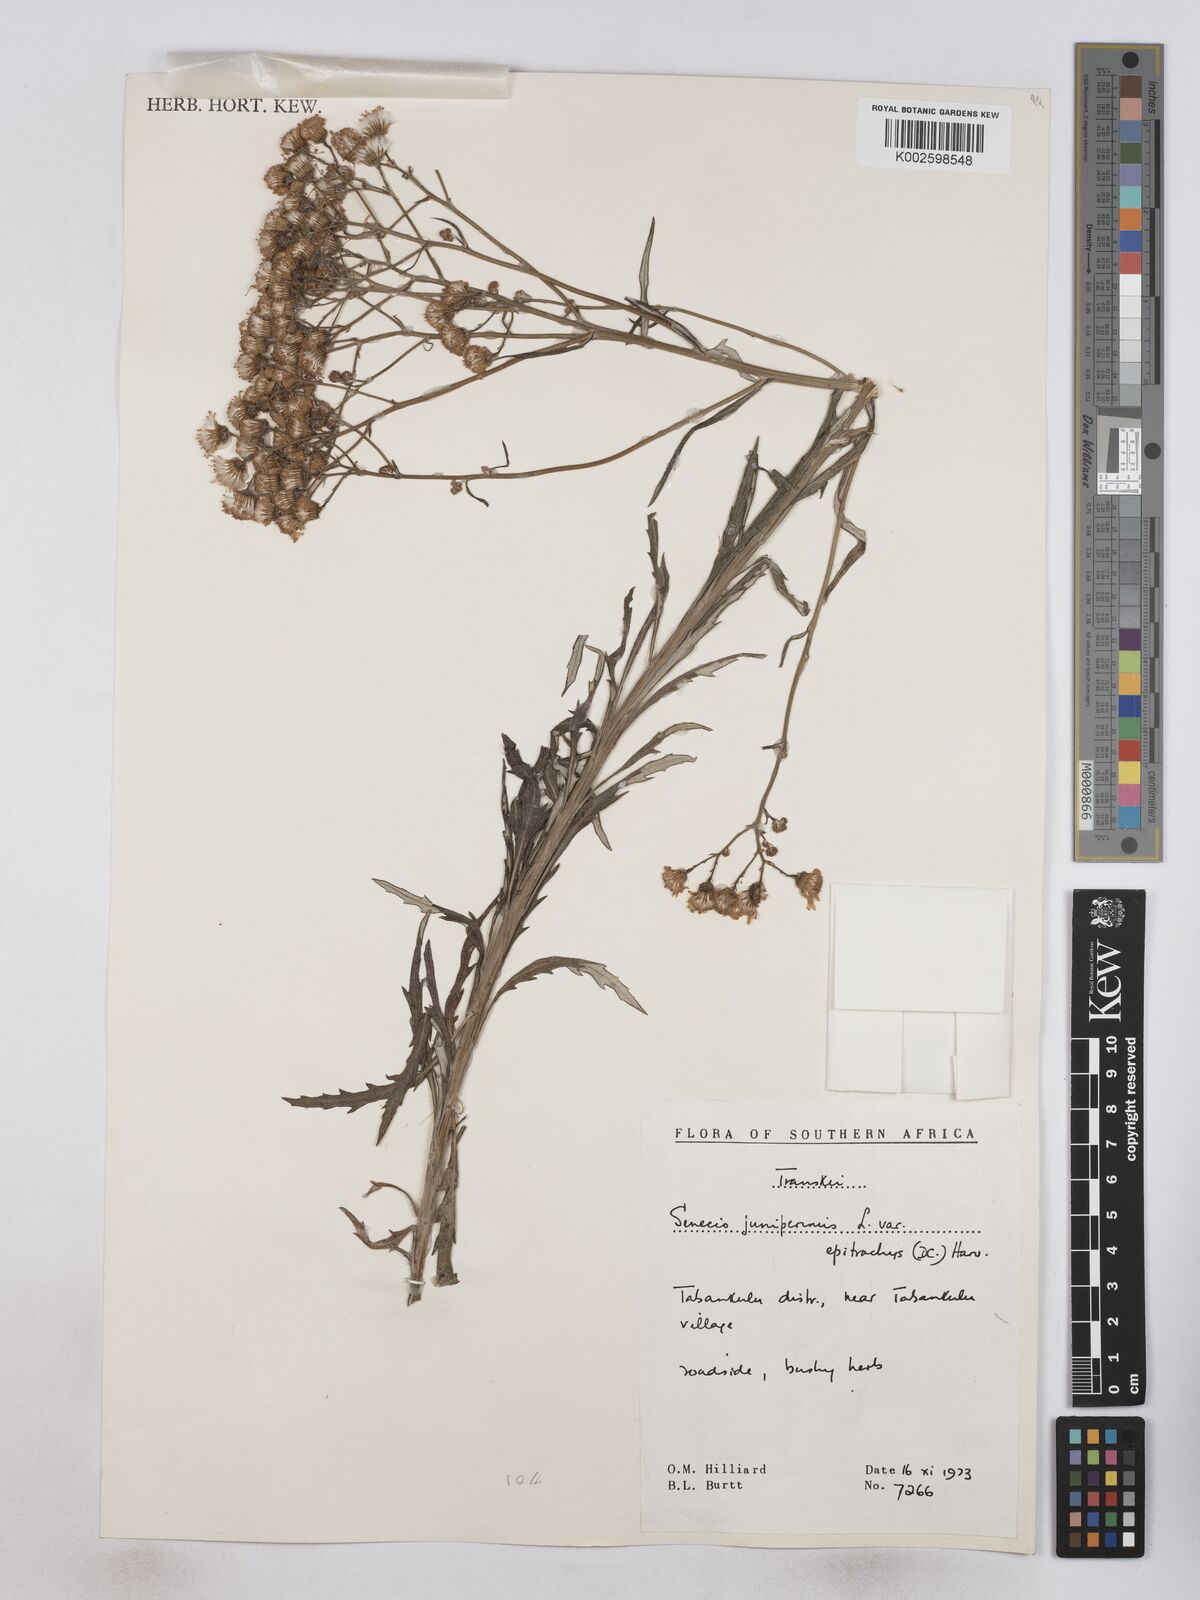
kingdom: Plantae
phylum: Tracheophyta
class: Magnoliopsida
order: Asterales
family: Asteraceae
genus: Senecio
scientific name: Senecio juniperinus
